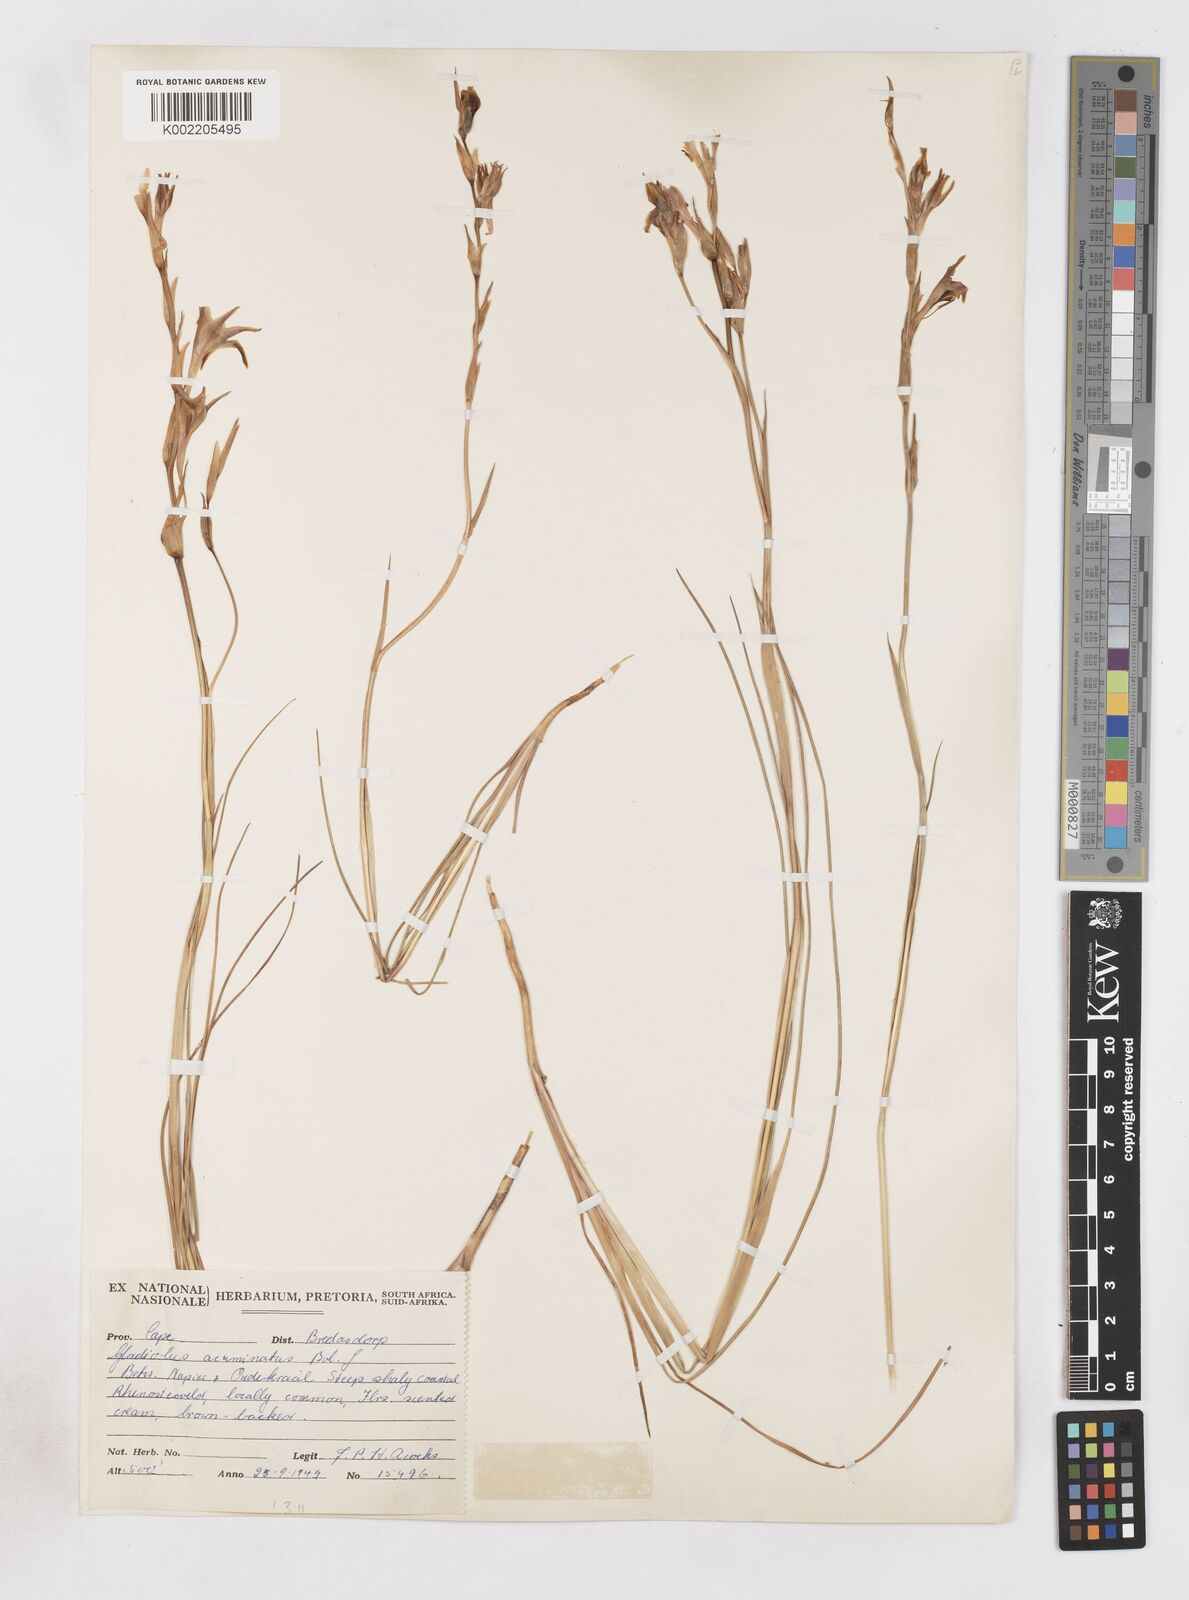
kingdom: Plantae
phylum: Tracheophyta
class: Liliopsida
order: Asparagales
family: Iridaceae
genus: Gladiolus
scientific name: Gladiolus acuminatus
